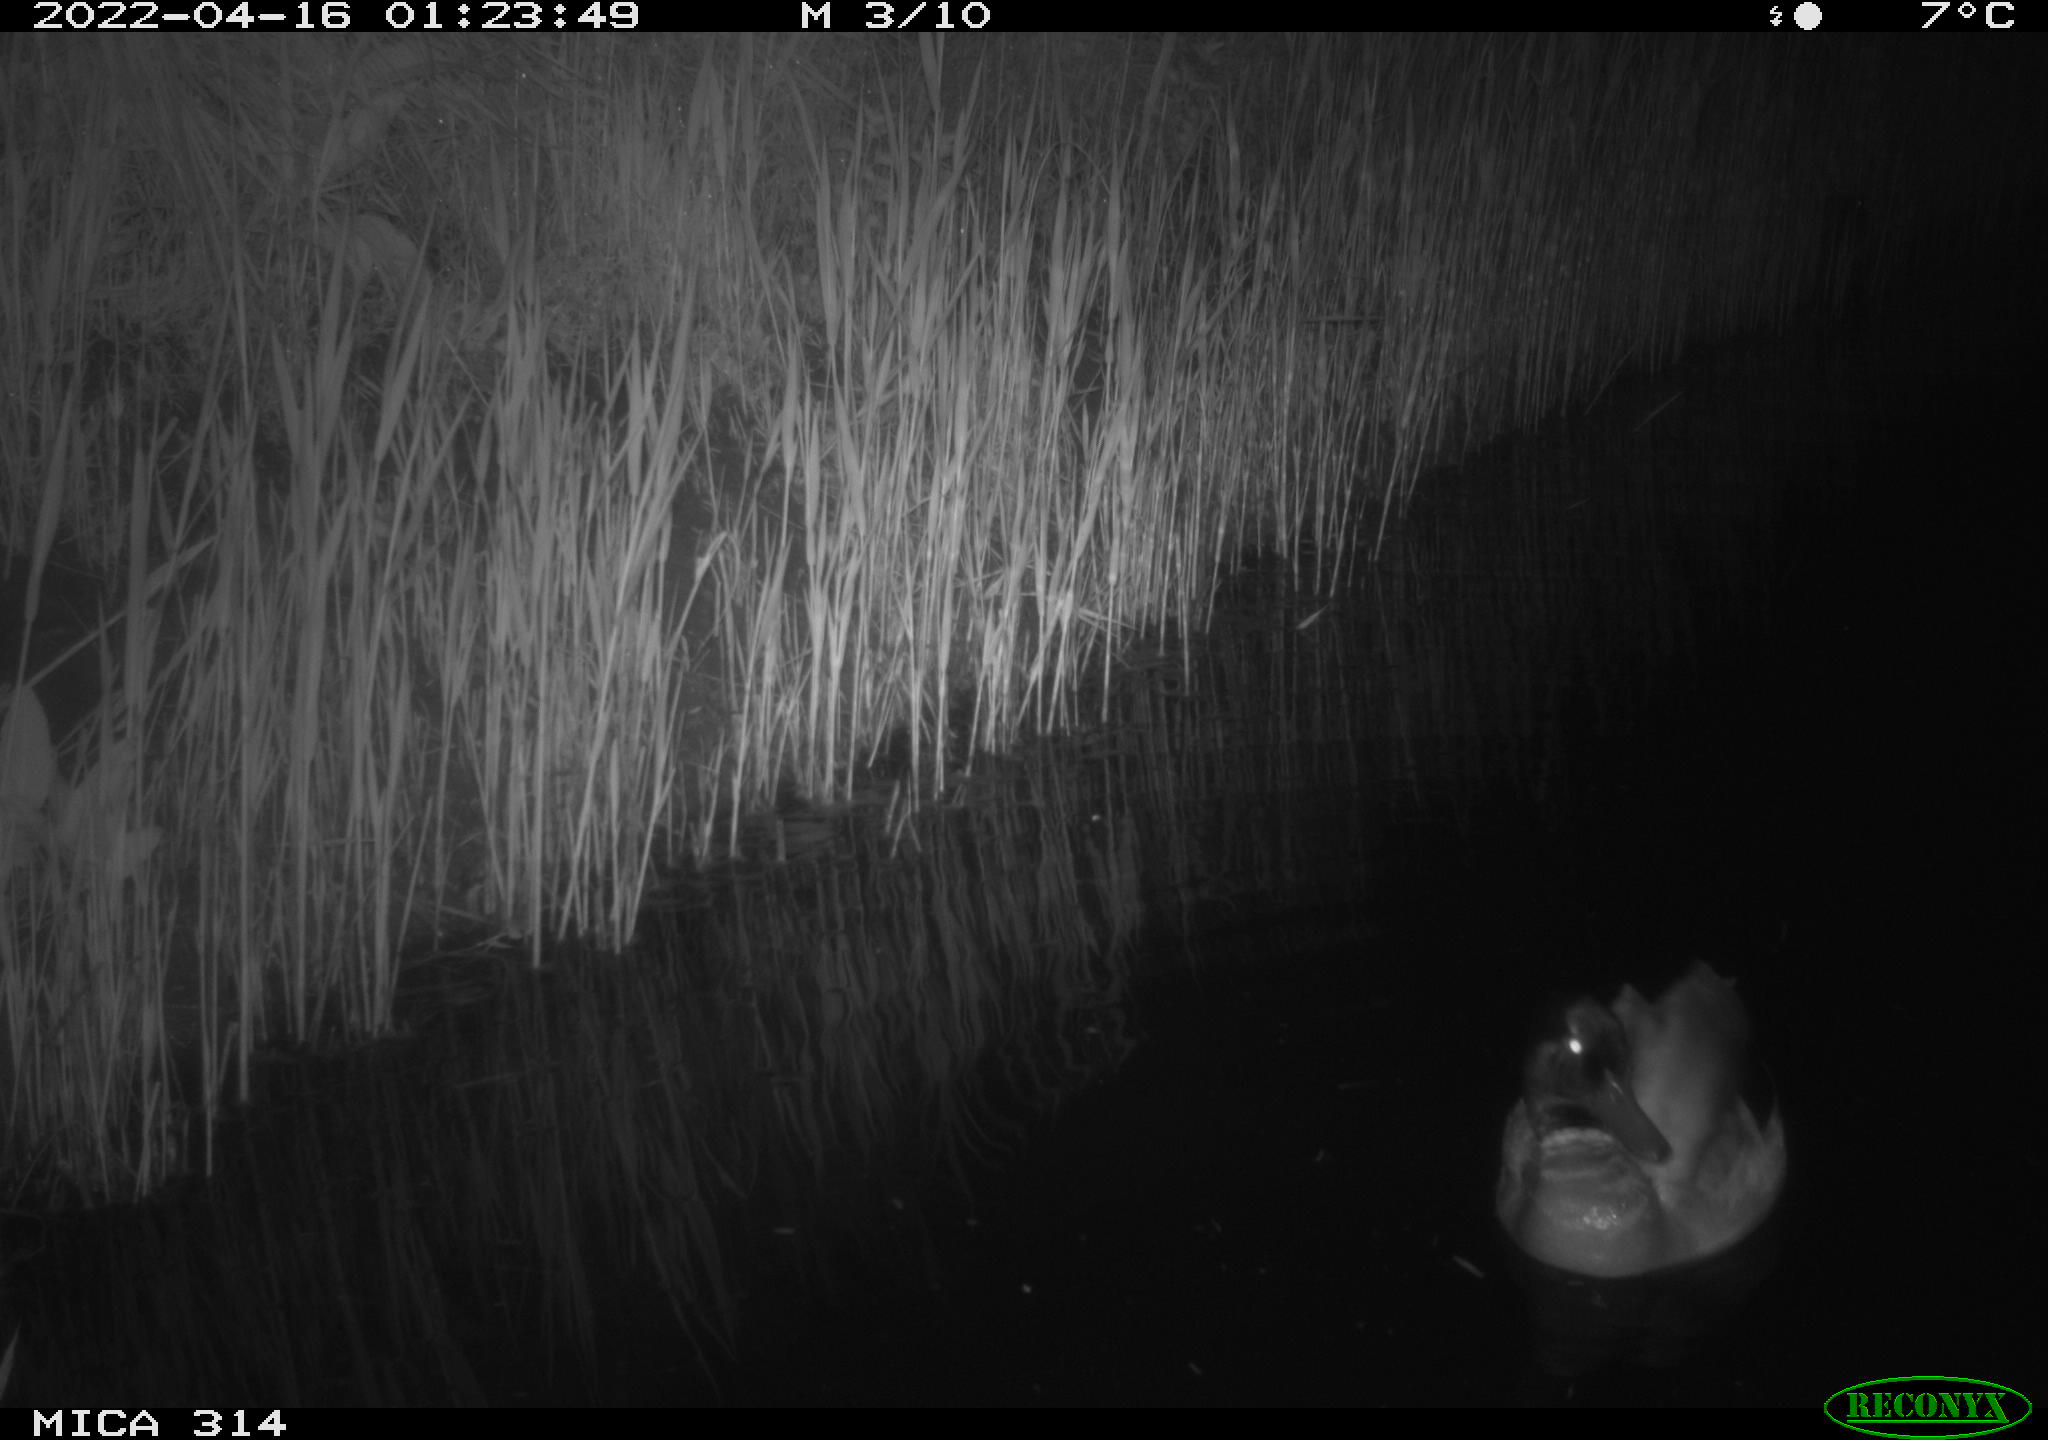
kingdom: Animalia
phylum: Chordata
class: Aves
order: Anseriformes
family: Anatidae
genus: Anas
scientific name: Anas platyrhynchos
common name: Mallard
